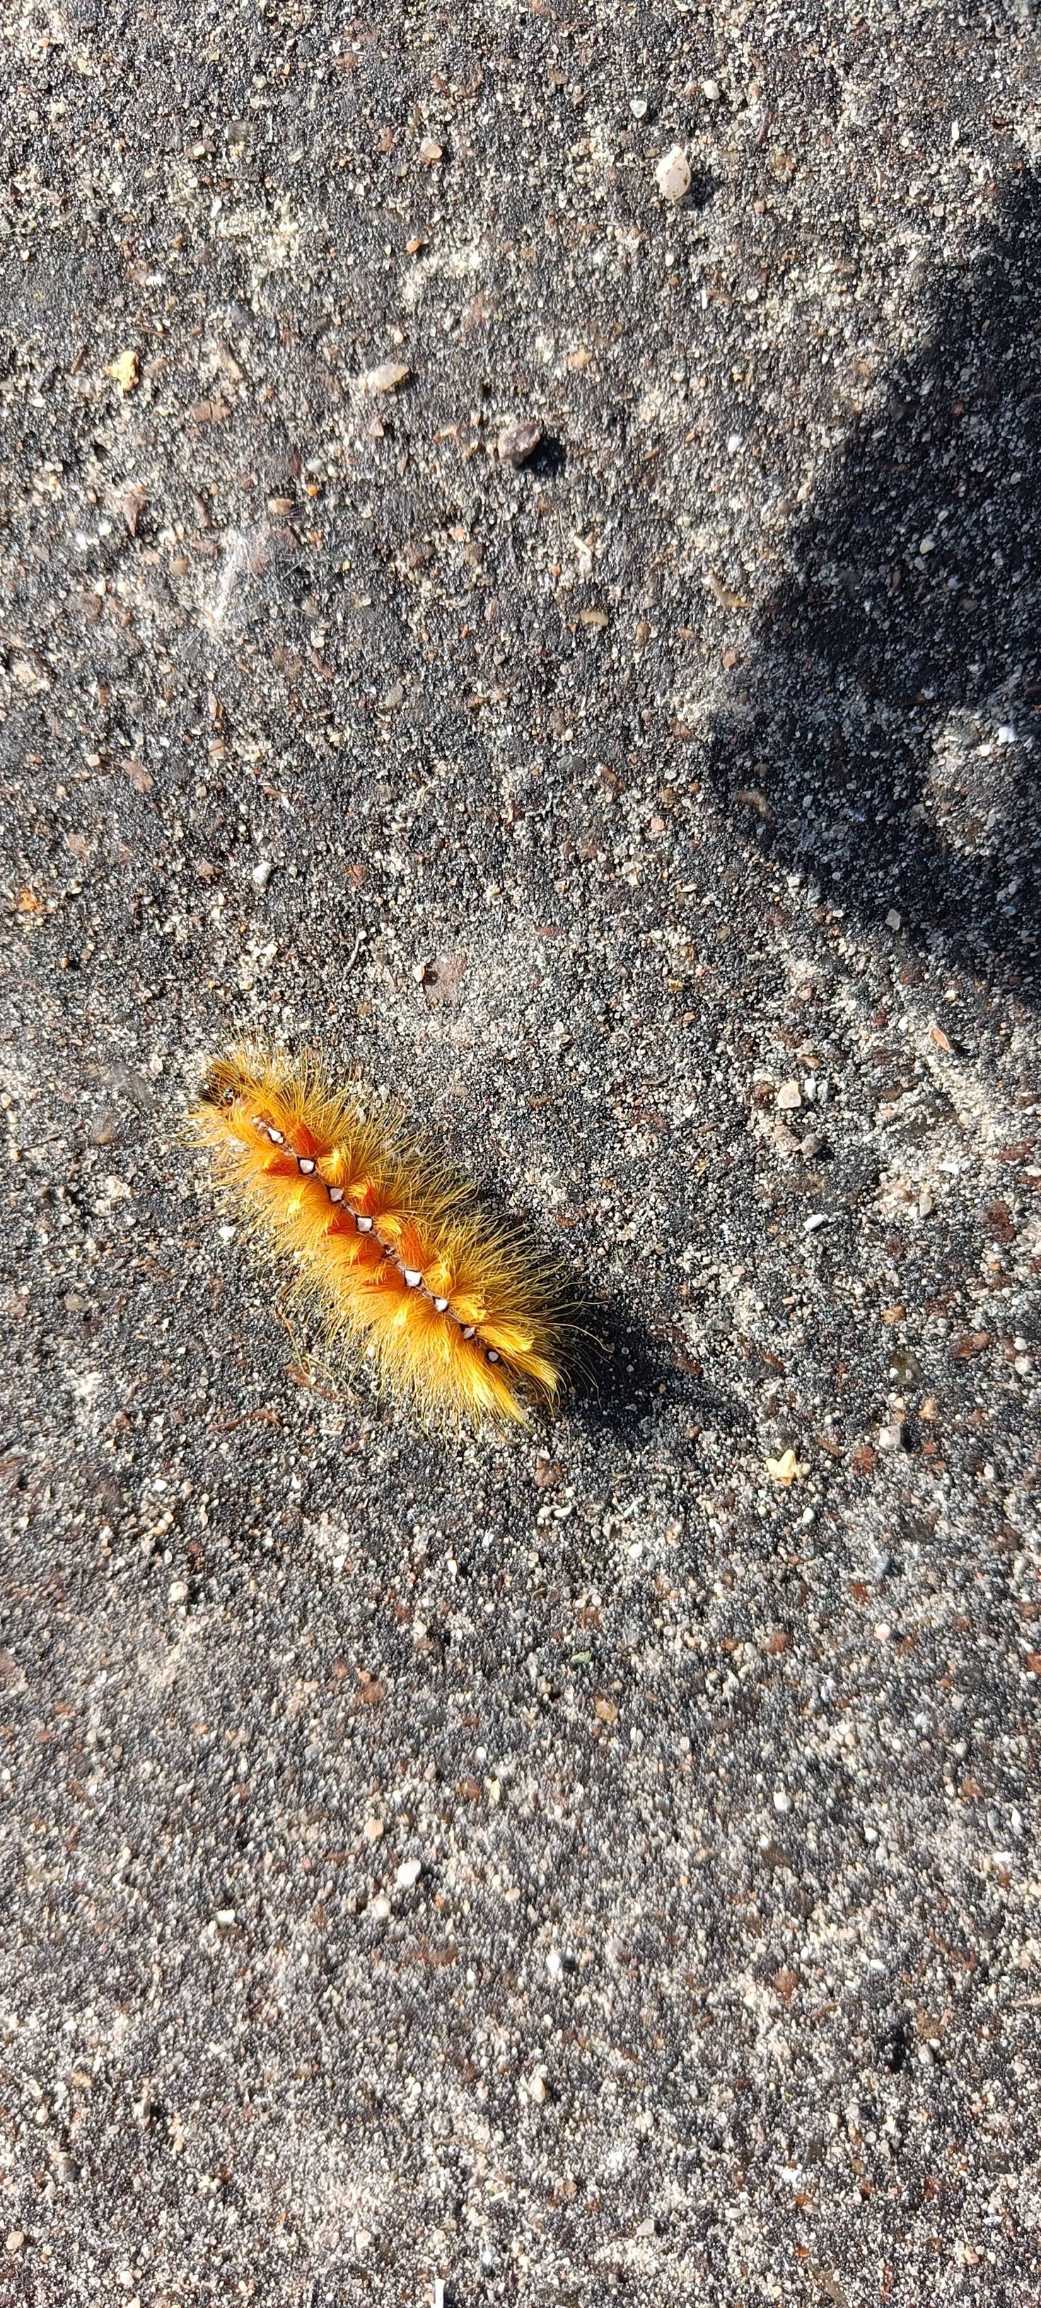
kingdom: Animalia
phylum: Arthropoda
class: Insecta
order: Lepidoptera
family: Noctuidae
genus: Acronicta
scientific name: Acronicta aceris
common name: Ahornugle
